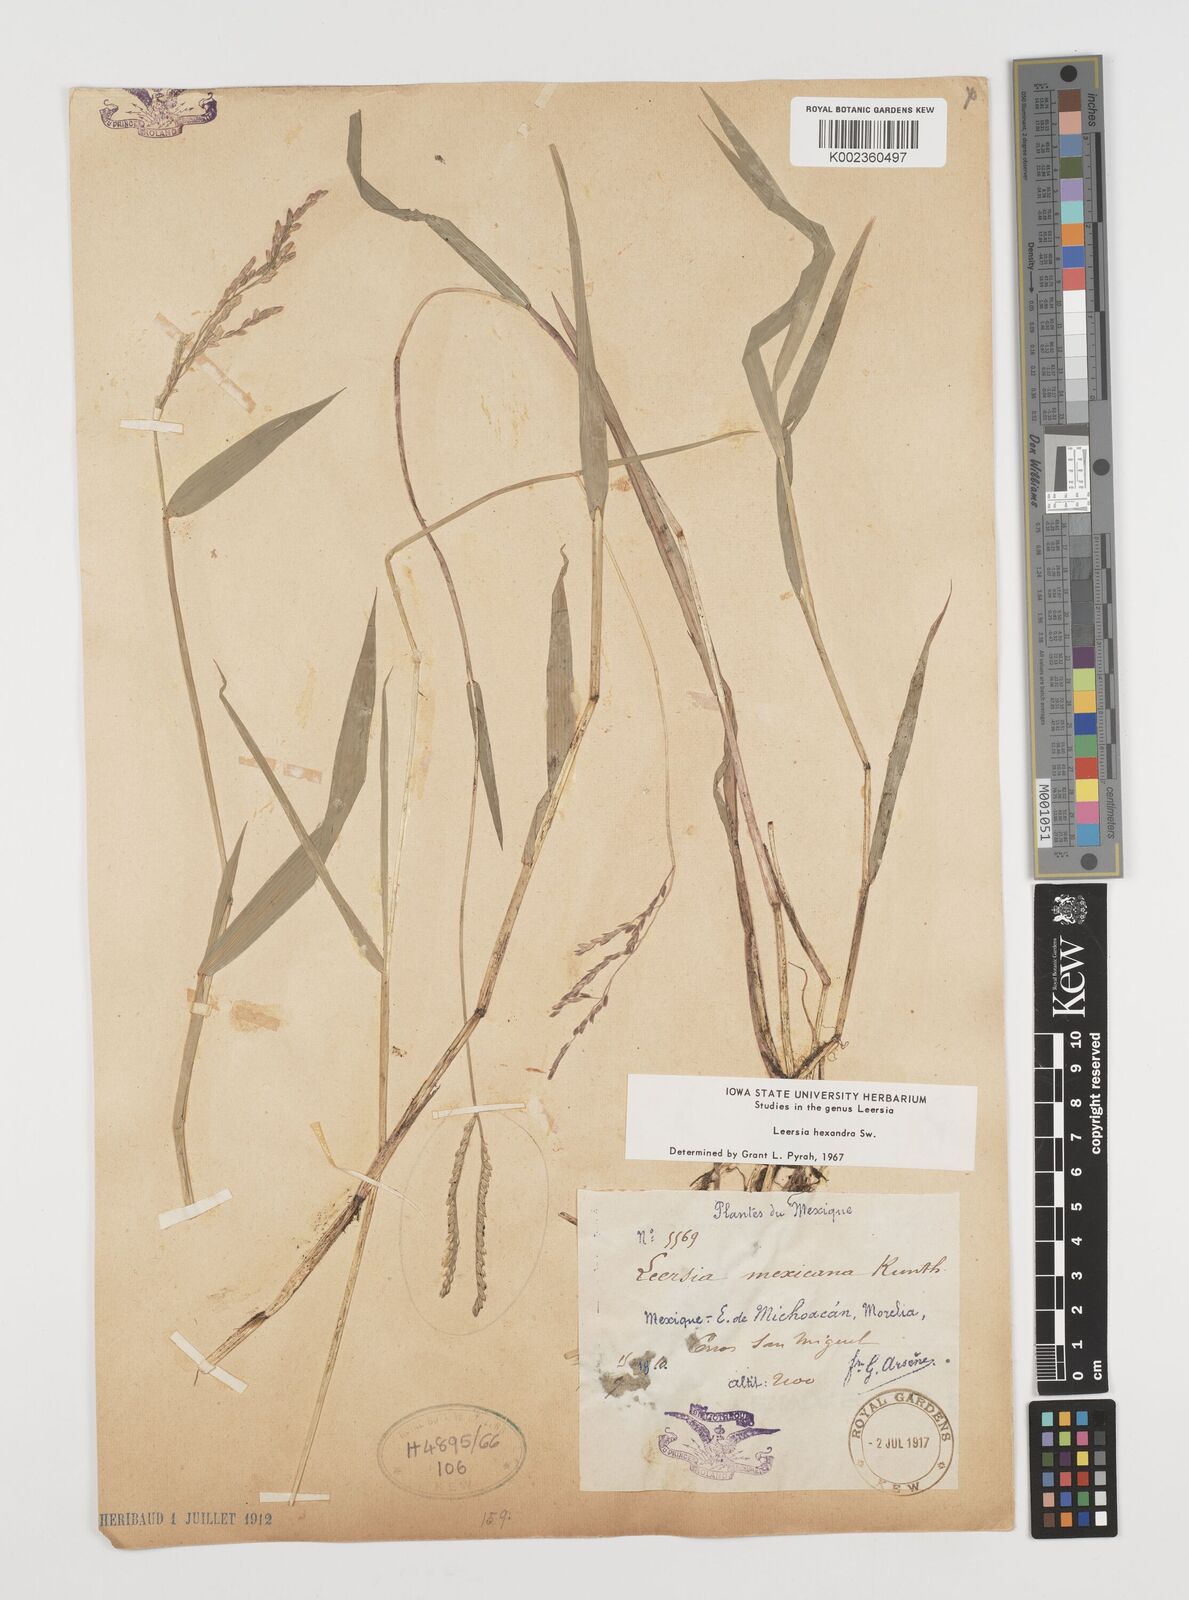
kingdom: Plantae
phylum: Tracheophyta
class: Liliopsida
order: Poales
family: Poaceae
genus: Leersia
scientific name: Leersia hexandra
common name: Southern cut grass
